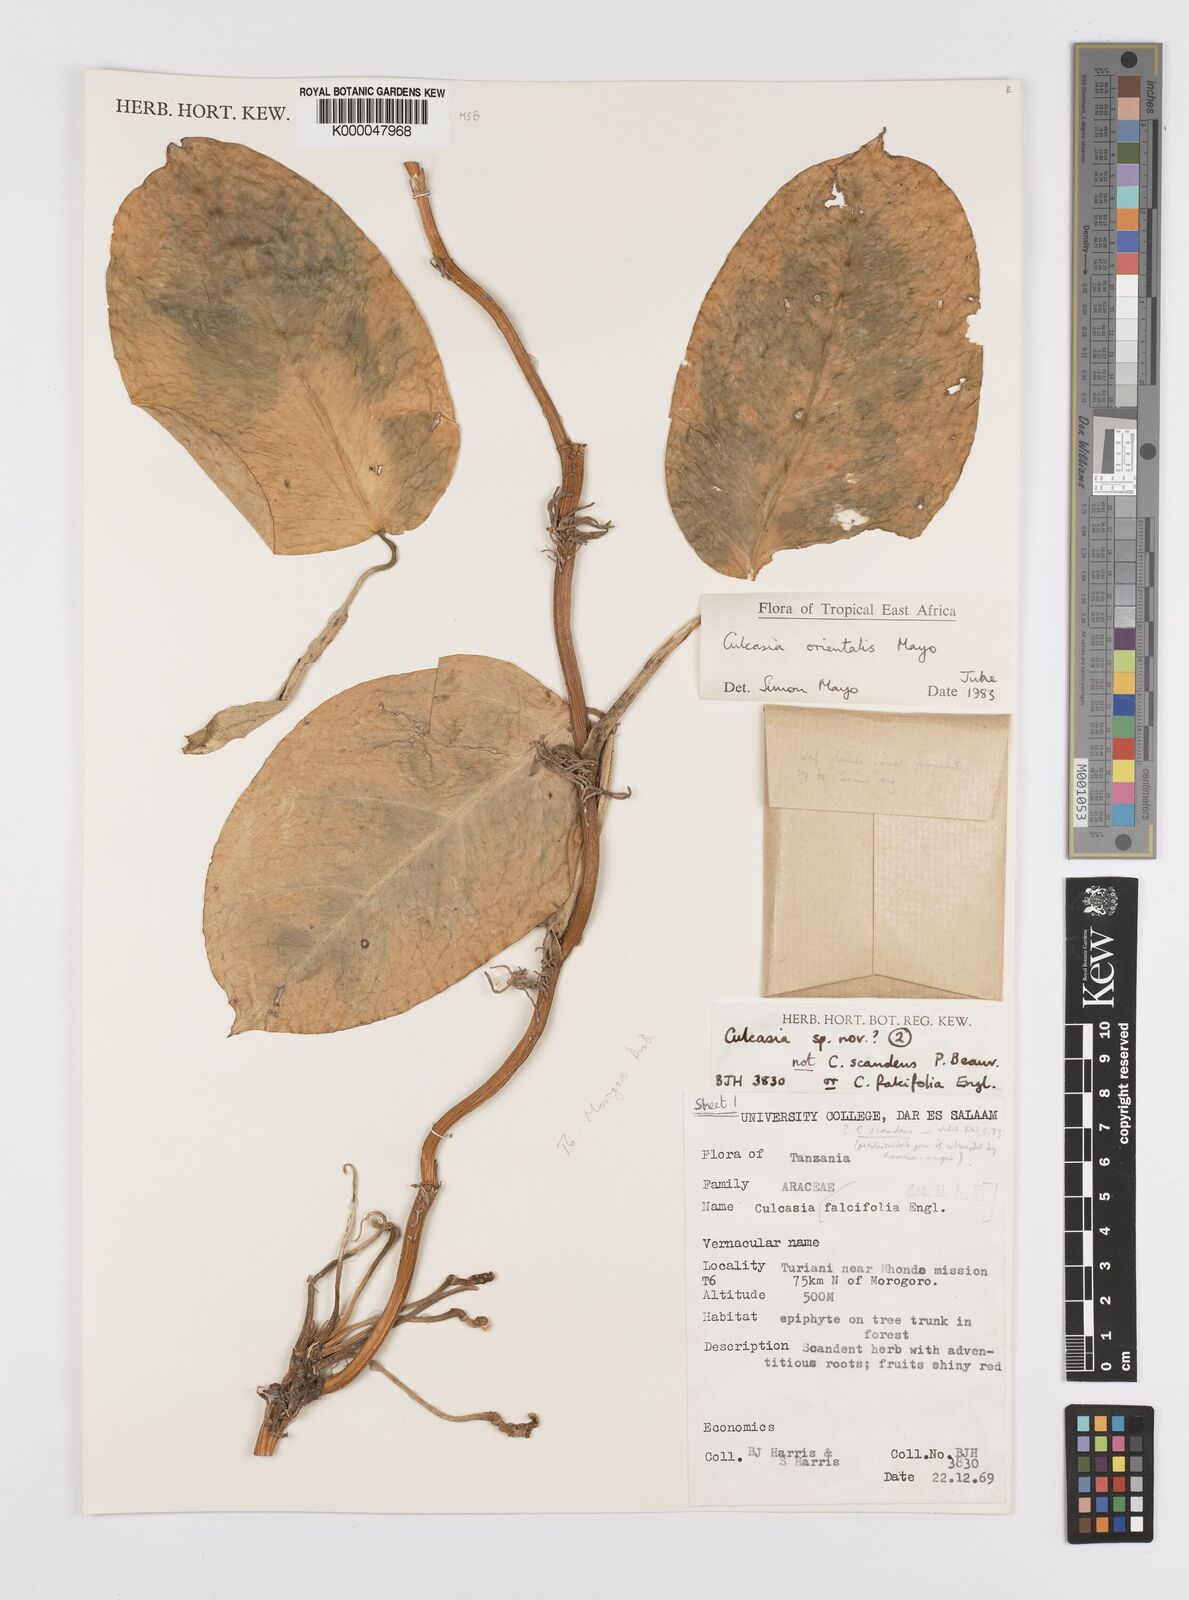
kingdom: Plantae
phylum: Tracheophyta
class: Liliopsida
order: Alismatales
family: Araceae
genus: Culcasia
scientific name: Culcasia orientalis
